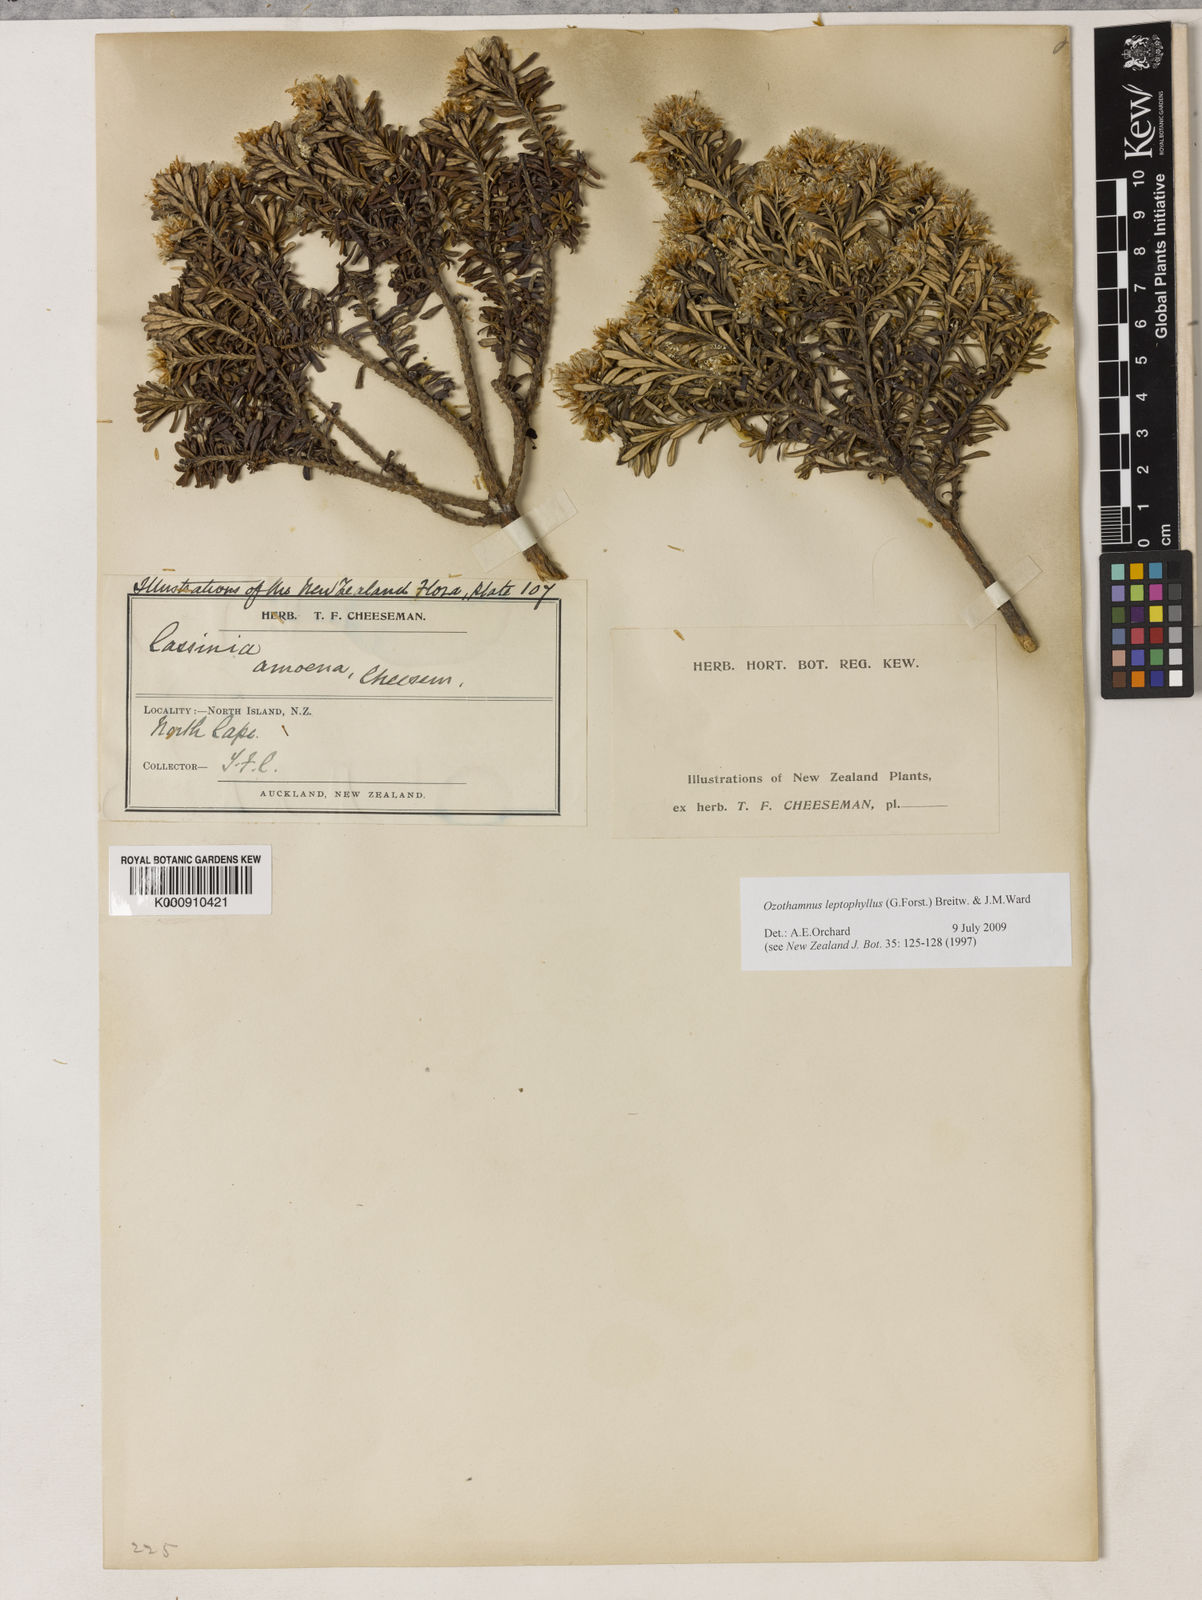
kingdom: Plantae
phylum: Tracheophyta
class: Magnoliopsida
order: Asterales
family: Asteraceae
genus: Ozothamnus
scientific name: Ozothamnus leptophyllus
